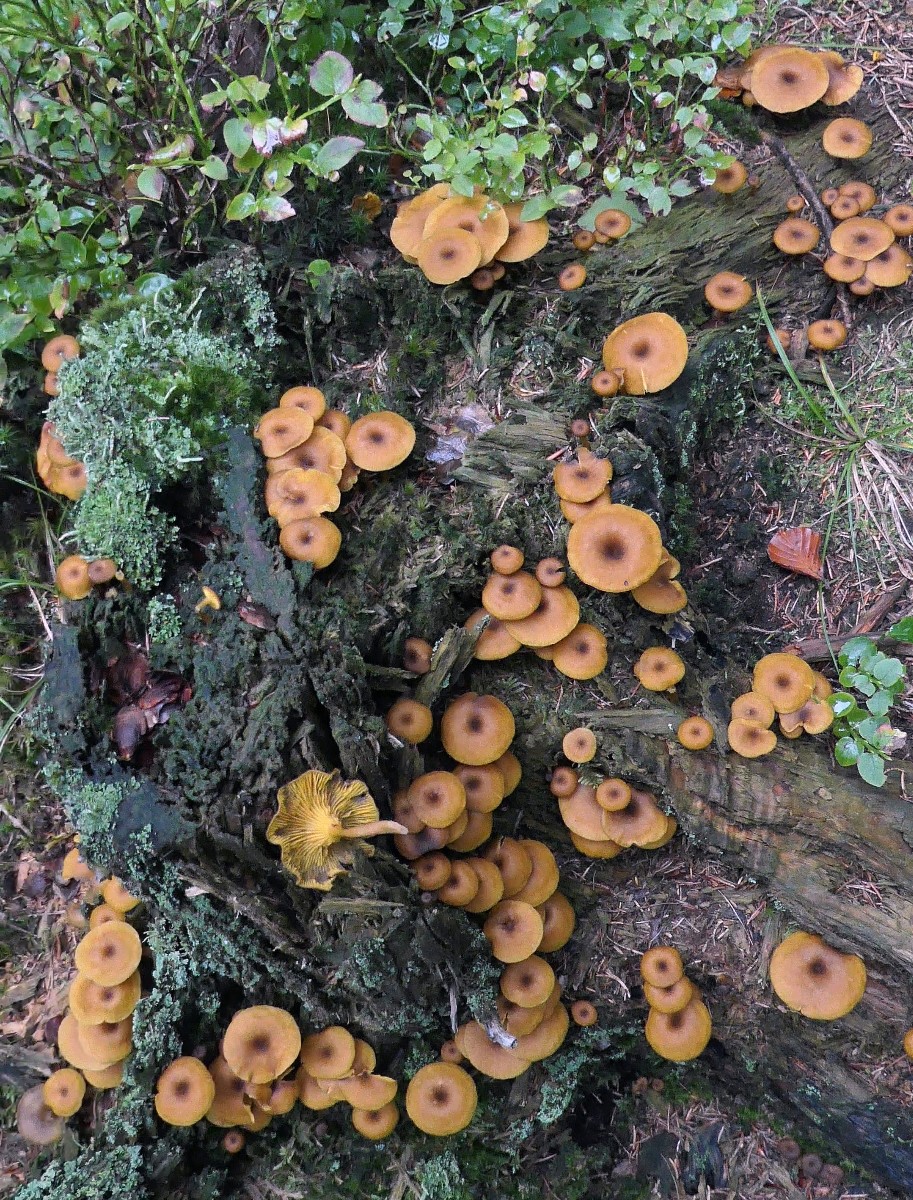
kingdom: Fungi
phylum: Basidiomycota
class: Agaricomycetes
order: Agaricales
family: Hygrophoraceae
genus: Chrysomphalina
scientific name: Chrysomphalina chrysophylla
